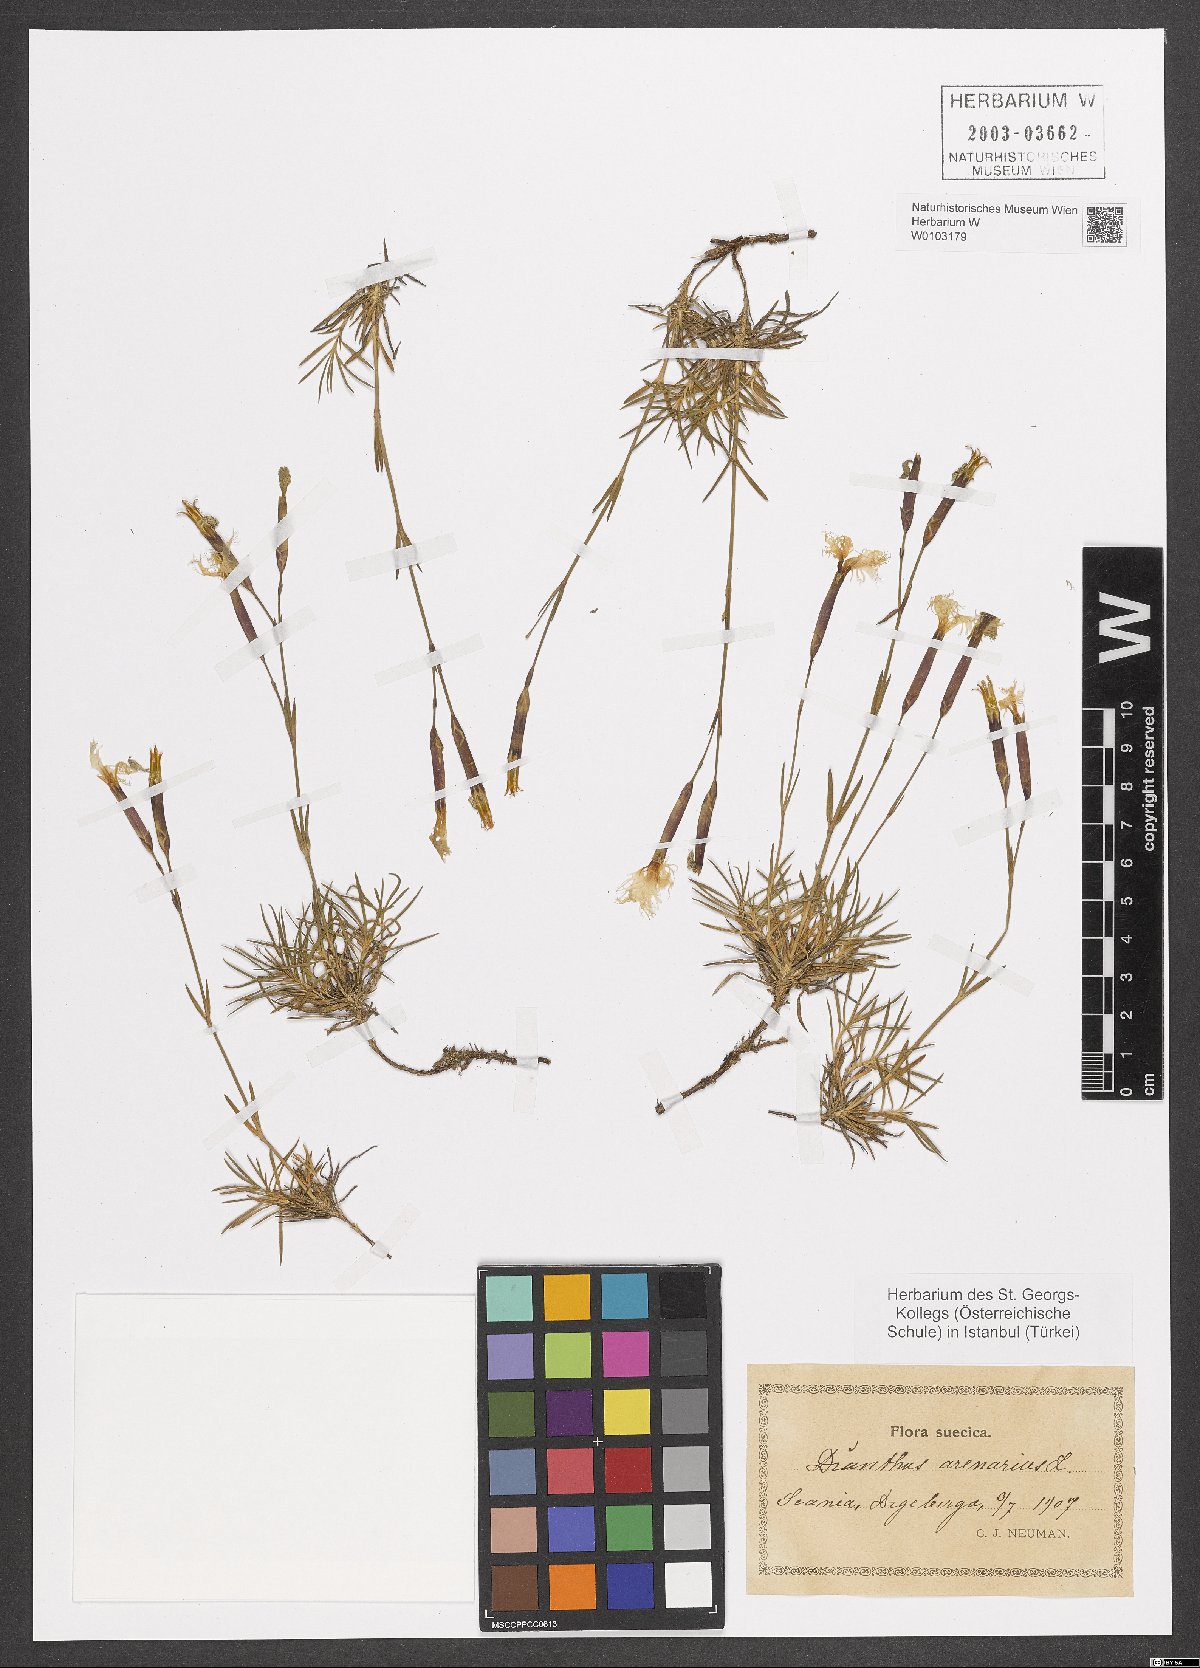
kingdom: Plantae
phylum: Tracheophyta
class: Magnoliopsida
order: Caryophyllales
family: Caryophyllaceae
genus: Dianthus
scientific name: Dianthus arenarius
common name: Stone pink
